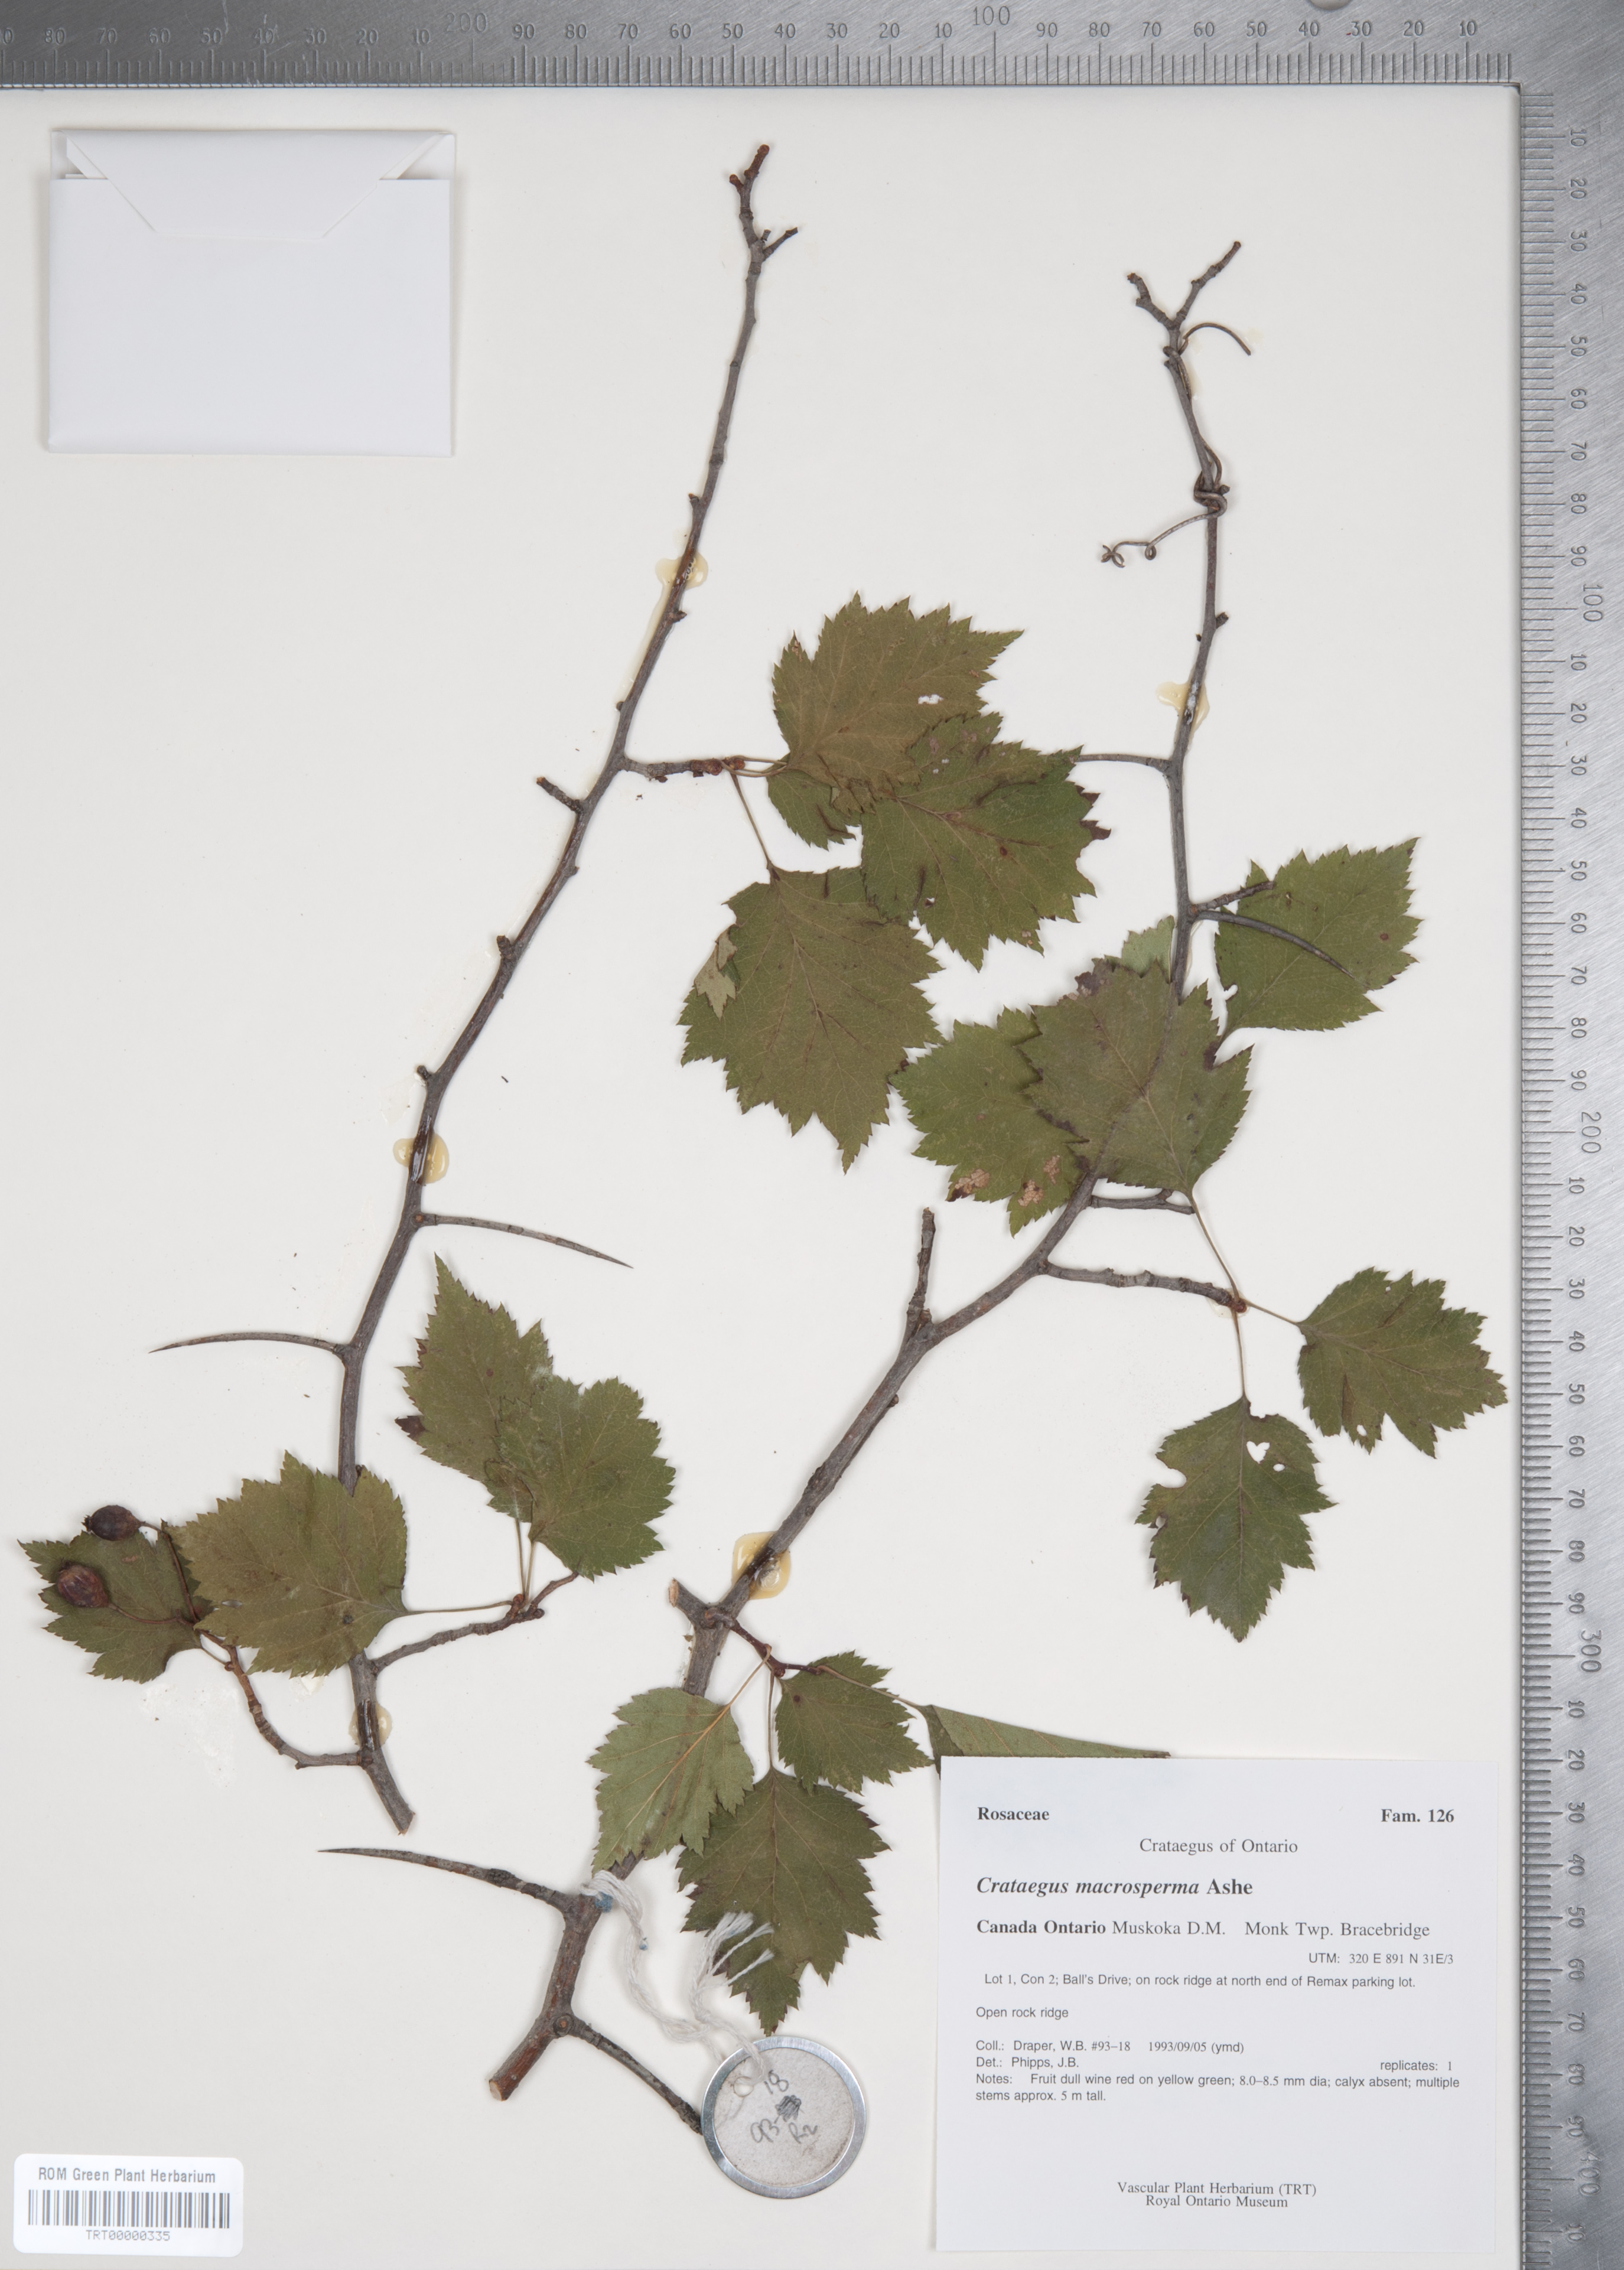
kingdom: Plantae
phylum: Tracheophyta
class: Magnoliopsida
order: Rosales
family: Rosaceae
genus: Crataegus
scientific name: Crataegus macrosperma
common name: Variable hawthorn
